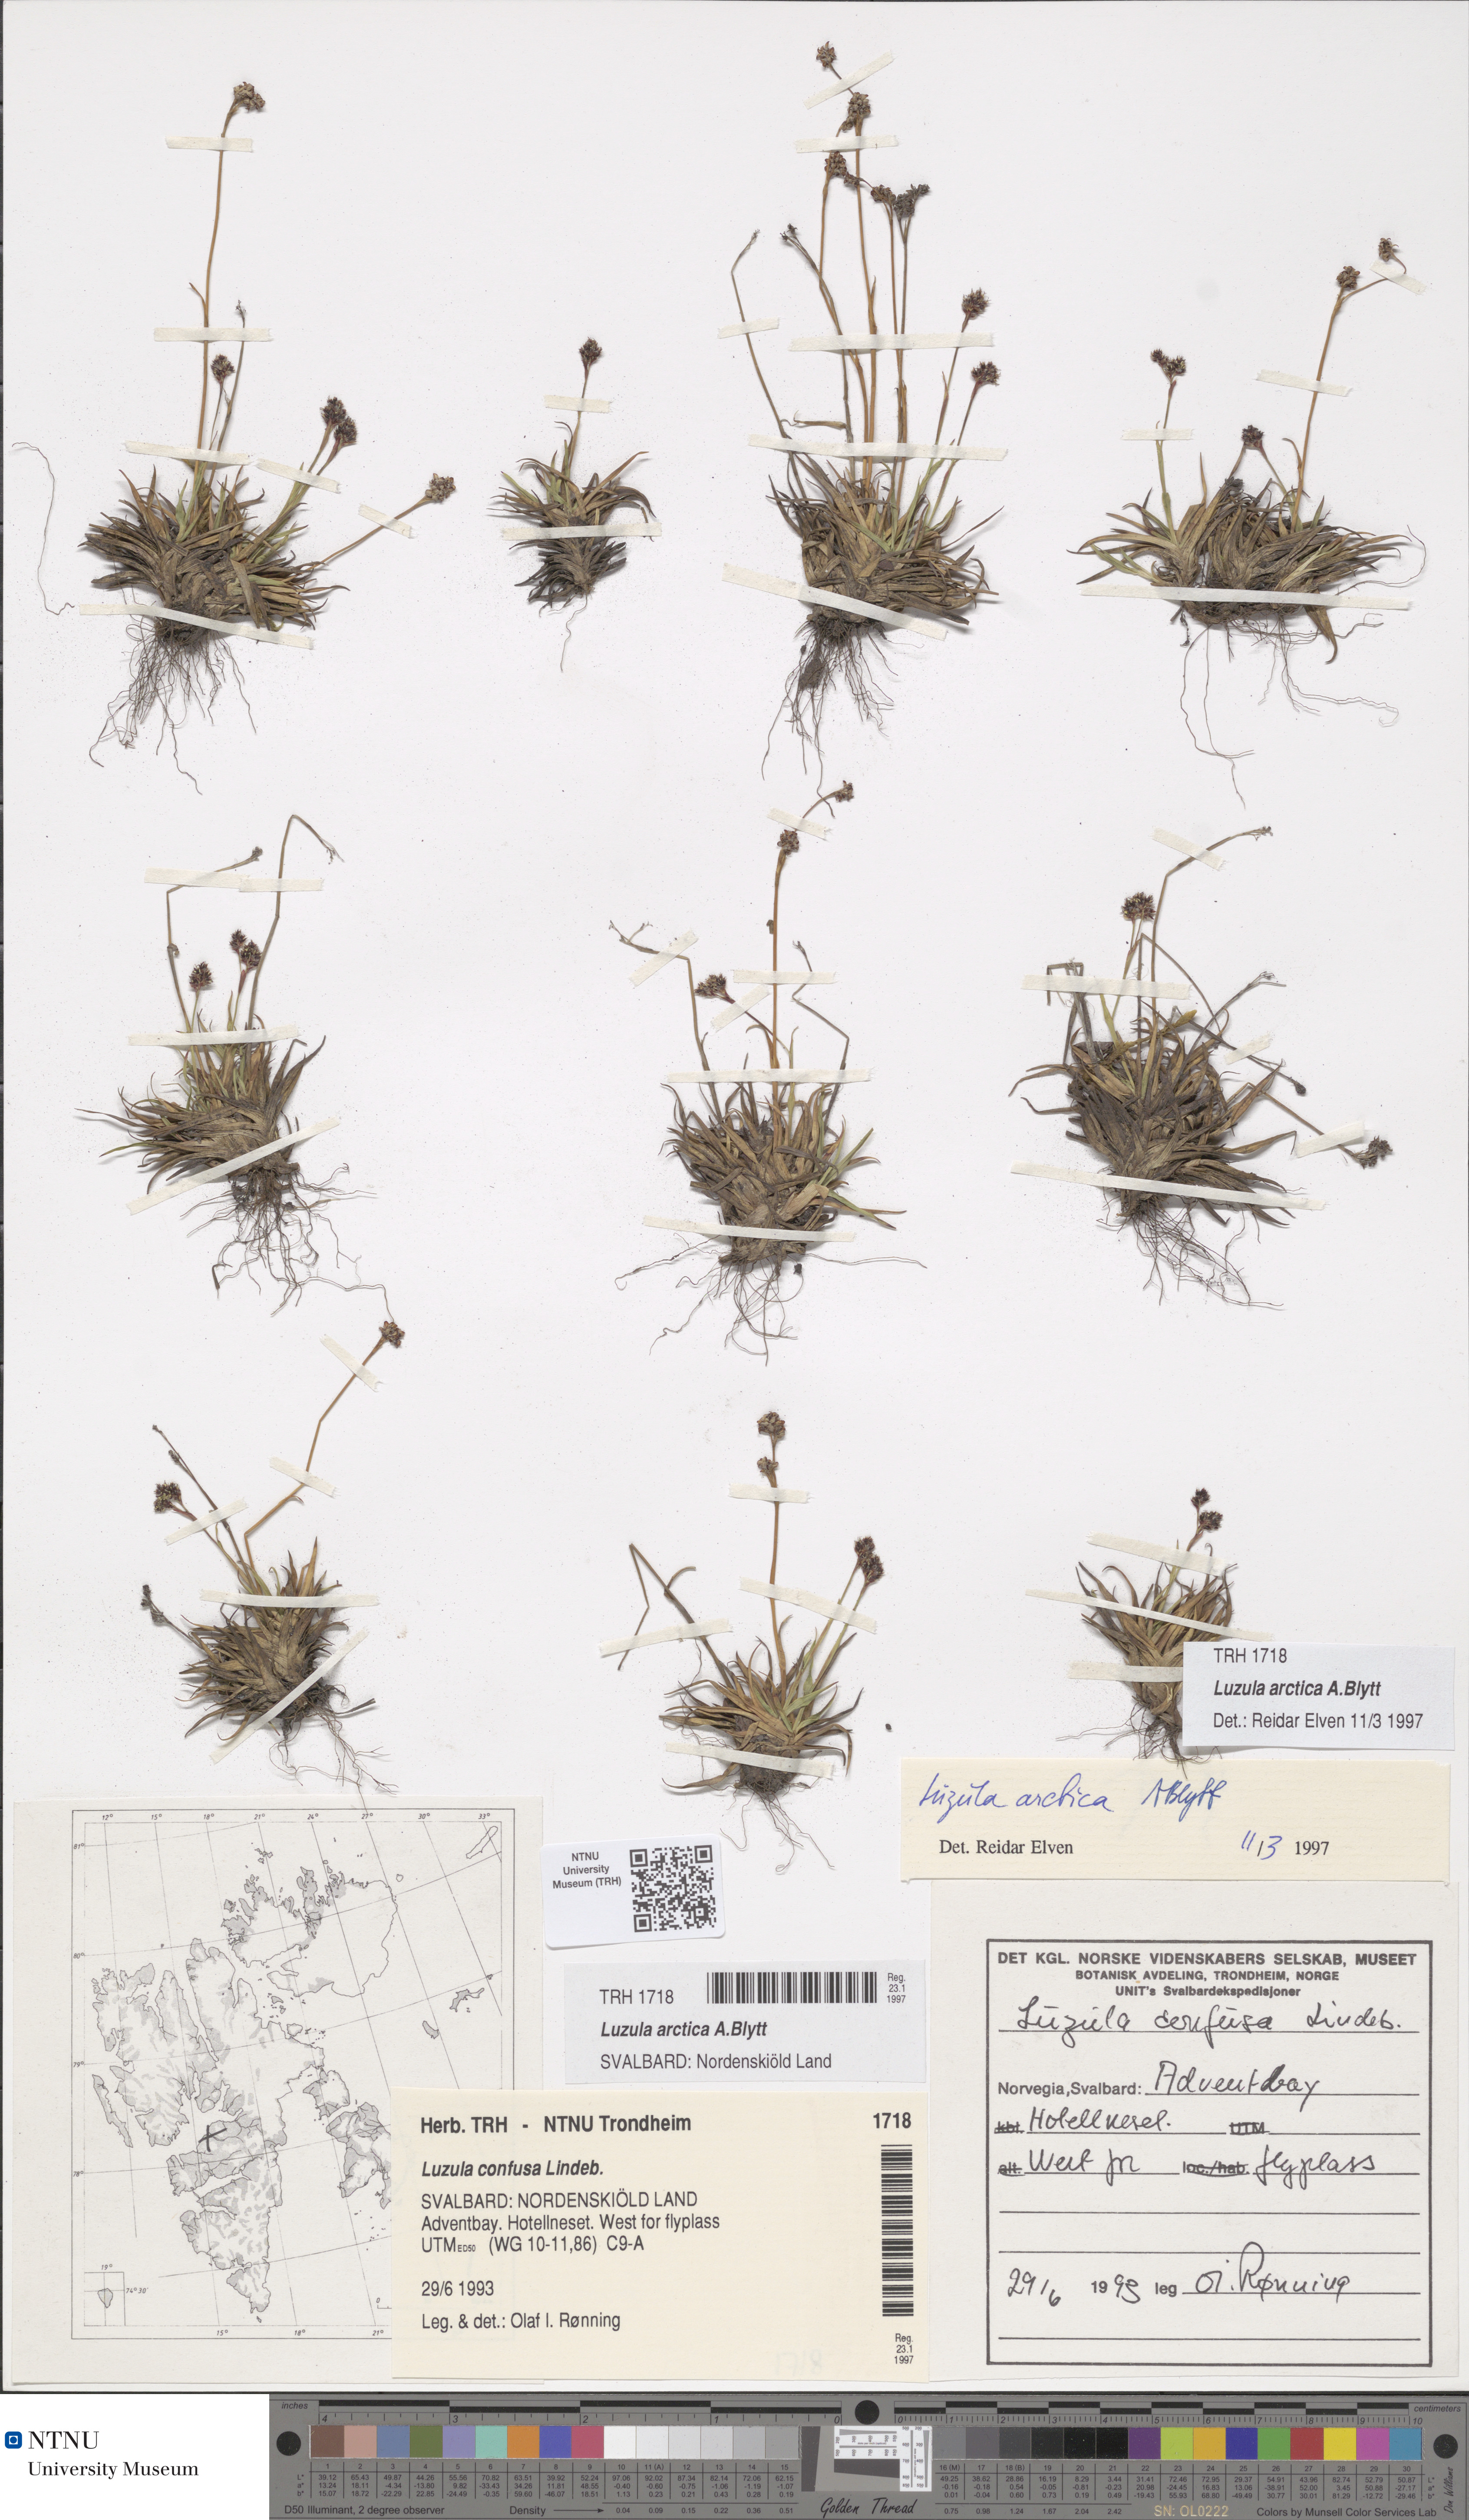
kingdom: Plantae
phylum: Tracheophyta
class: Liliopsida
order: Poales
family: Juncaceae
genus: Luzula
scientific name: Luzula nivalis
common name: Arctic woodrush
